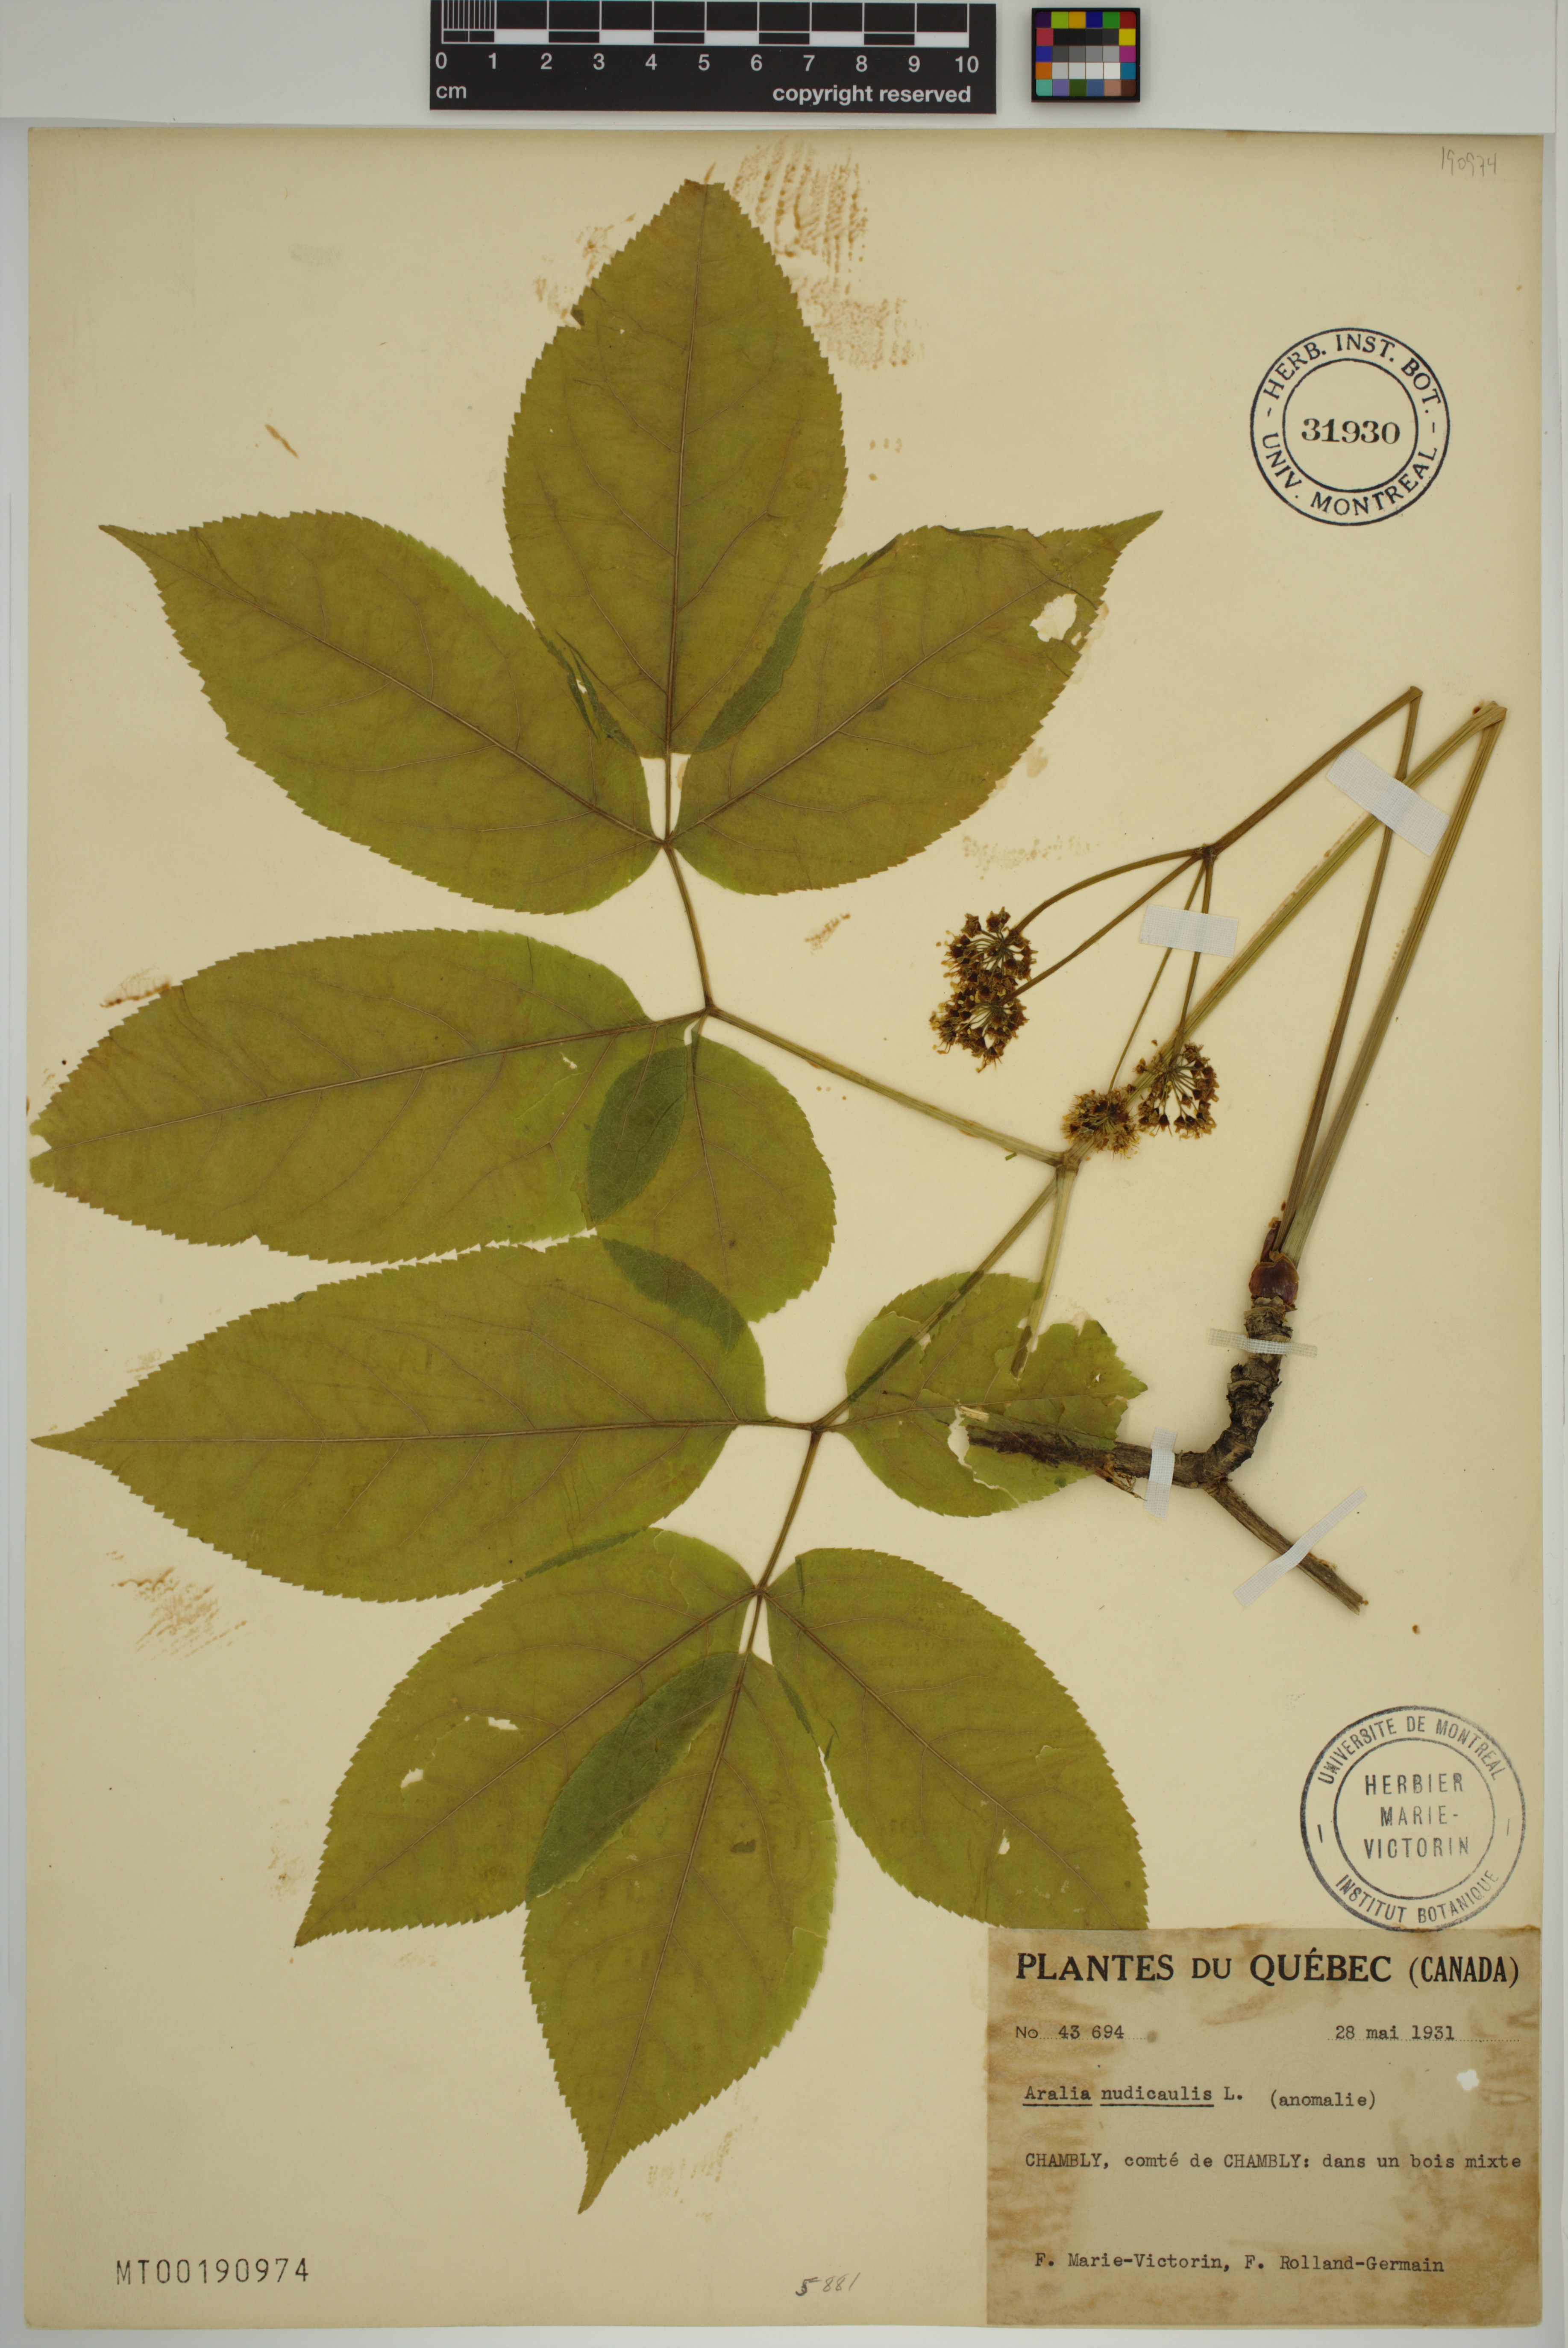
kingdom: Plantae
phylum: Tracheophyta
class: Magnoliopsida
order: Apiales
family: Araliaceae
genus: Aralia
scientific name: Aralia nudicaulis
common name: Wild sarsaparilla
